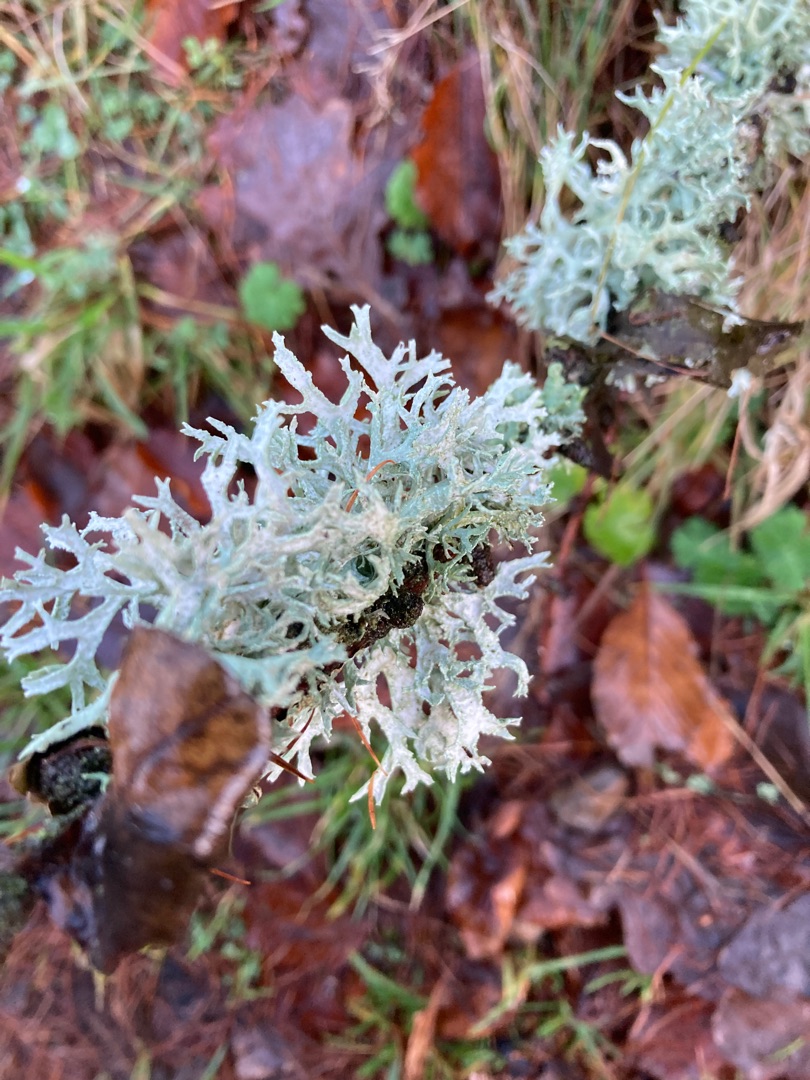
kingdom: Fungi
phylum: Ascomycota
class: Lecanoromycetes
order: Lecanorales
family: Parmeliaceae
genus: Evernia
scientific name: Evernia prunastri
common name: Almindelig slåenlav
